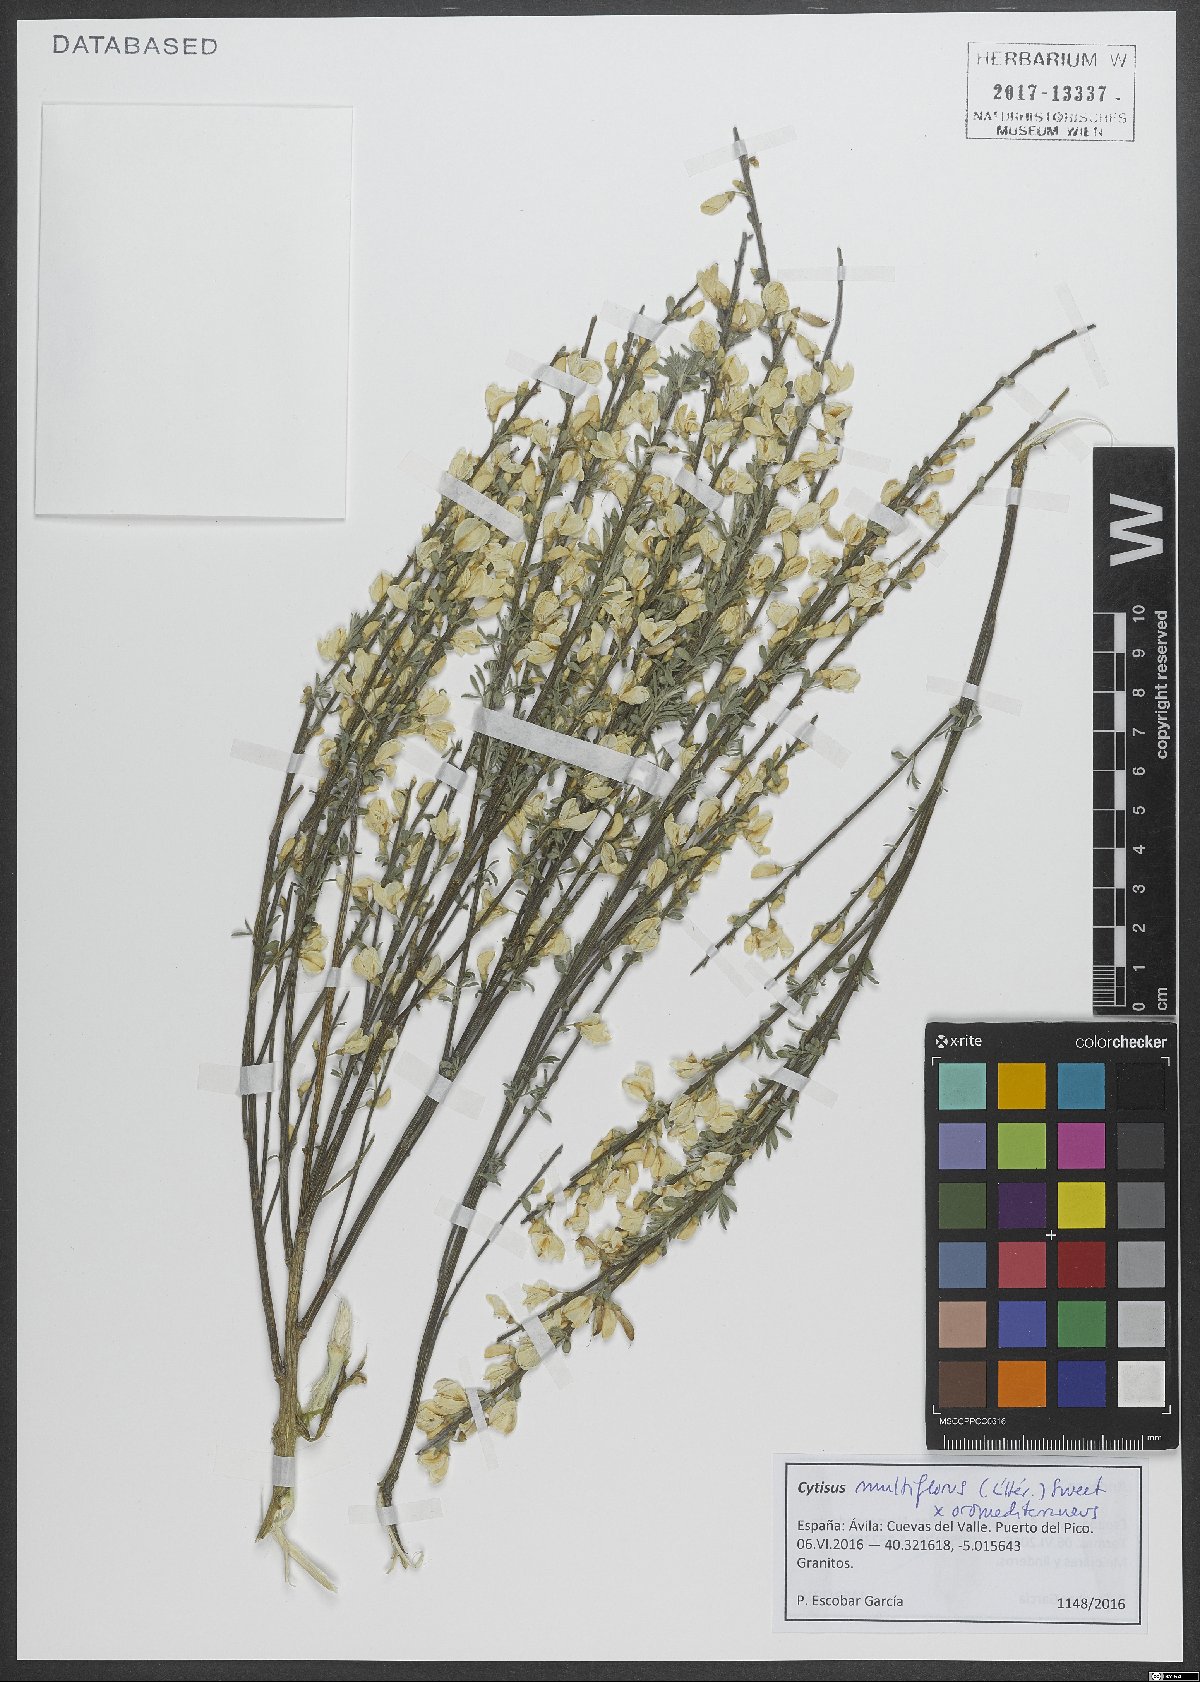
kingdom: Plantae
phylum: Tracheophyta
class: Magnoliopsida
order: Fabales
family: Fabaceae
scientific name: Fabaceae
